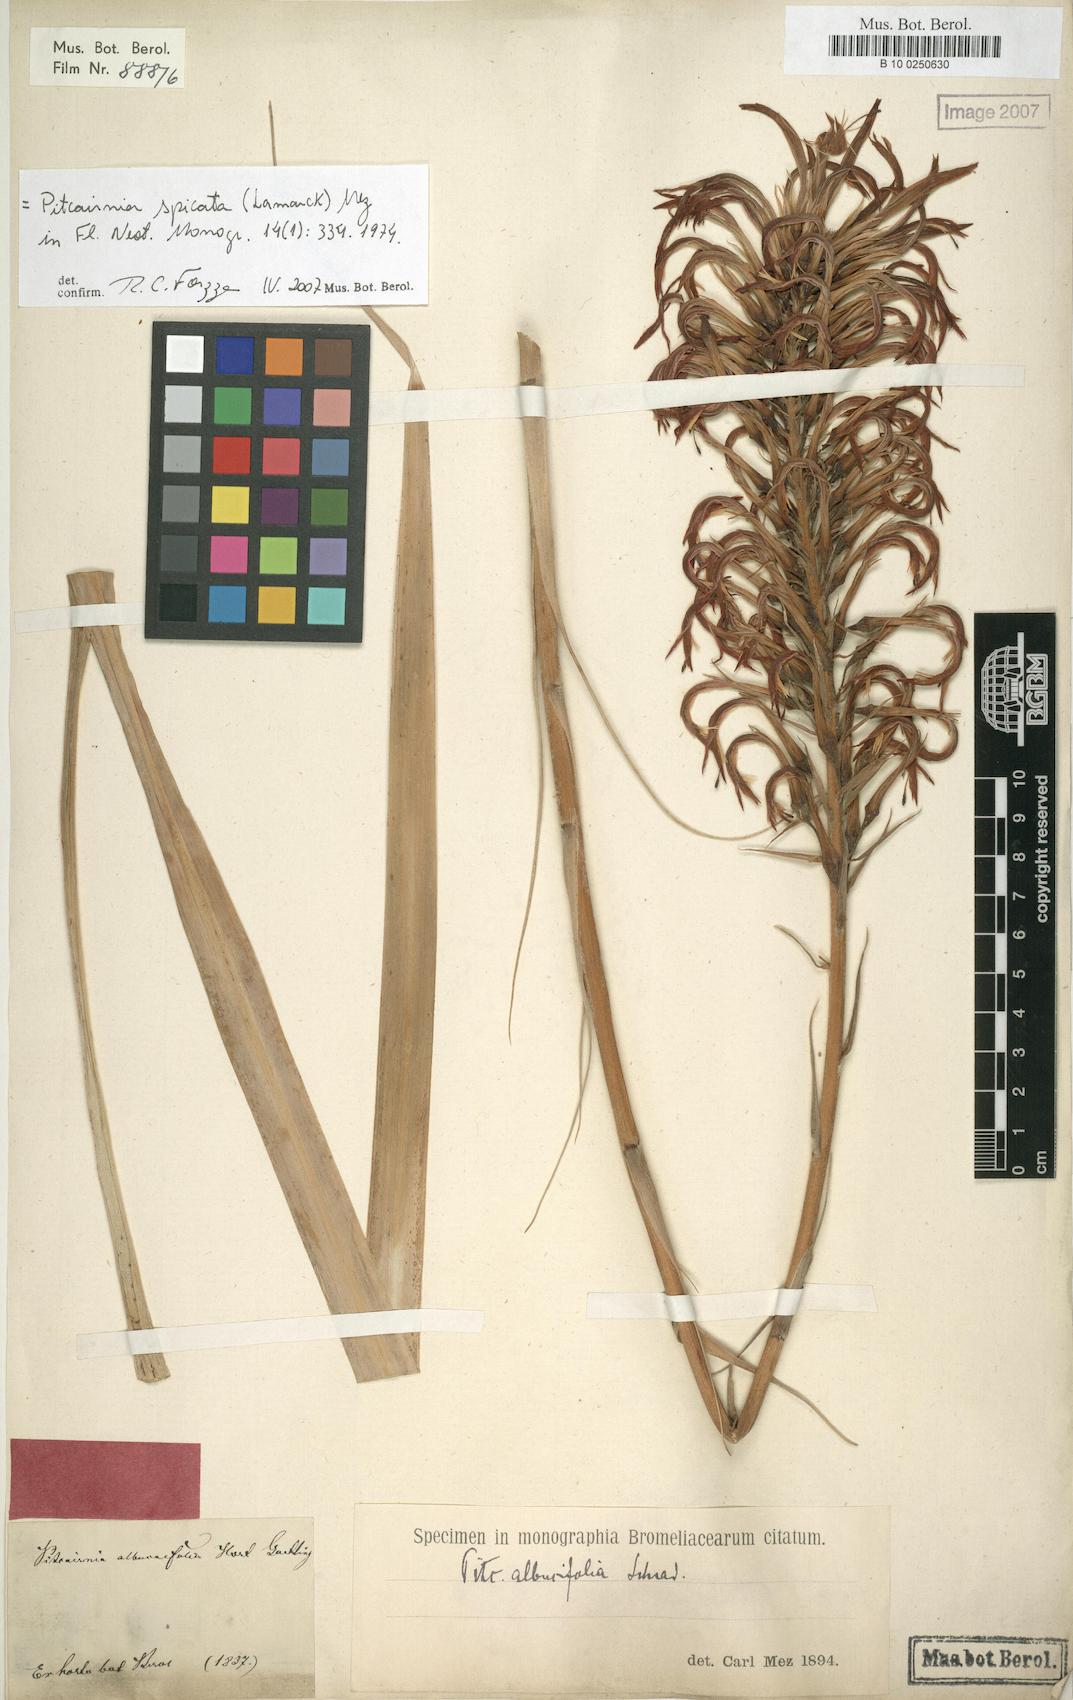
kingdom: Plantae
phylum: Tracheophyta
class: Liliopsida
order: Poales
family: Bromeliaceae
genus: Pitcairnia
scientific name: Pitcairnia spicata
